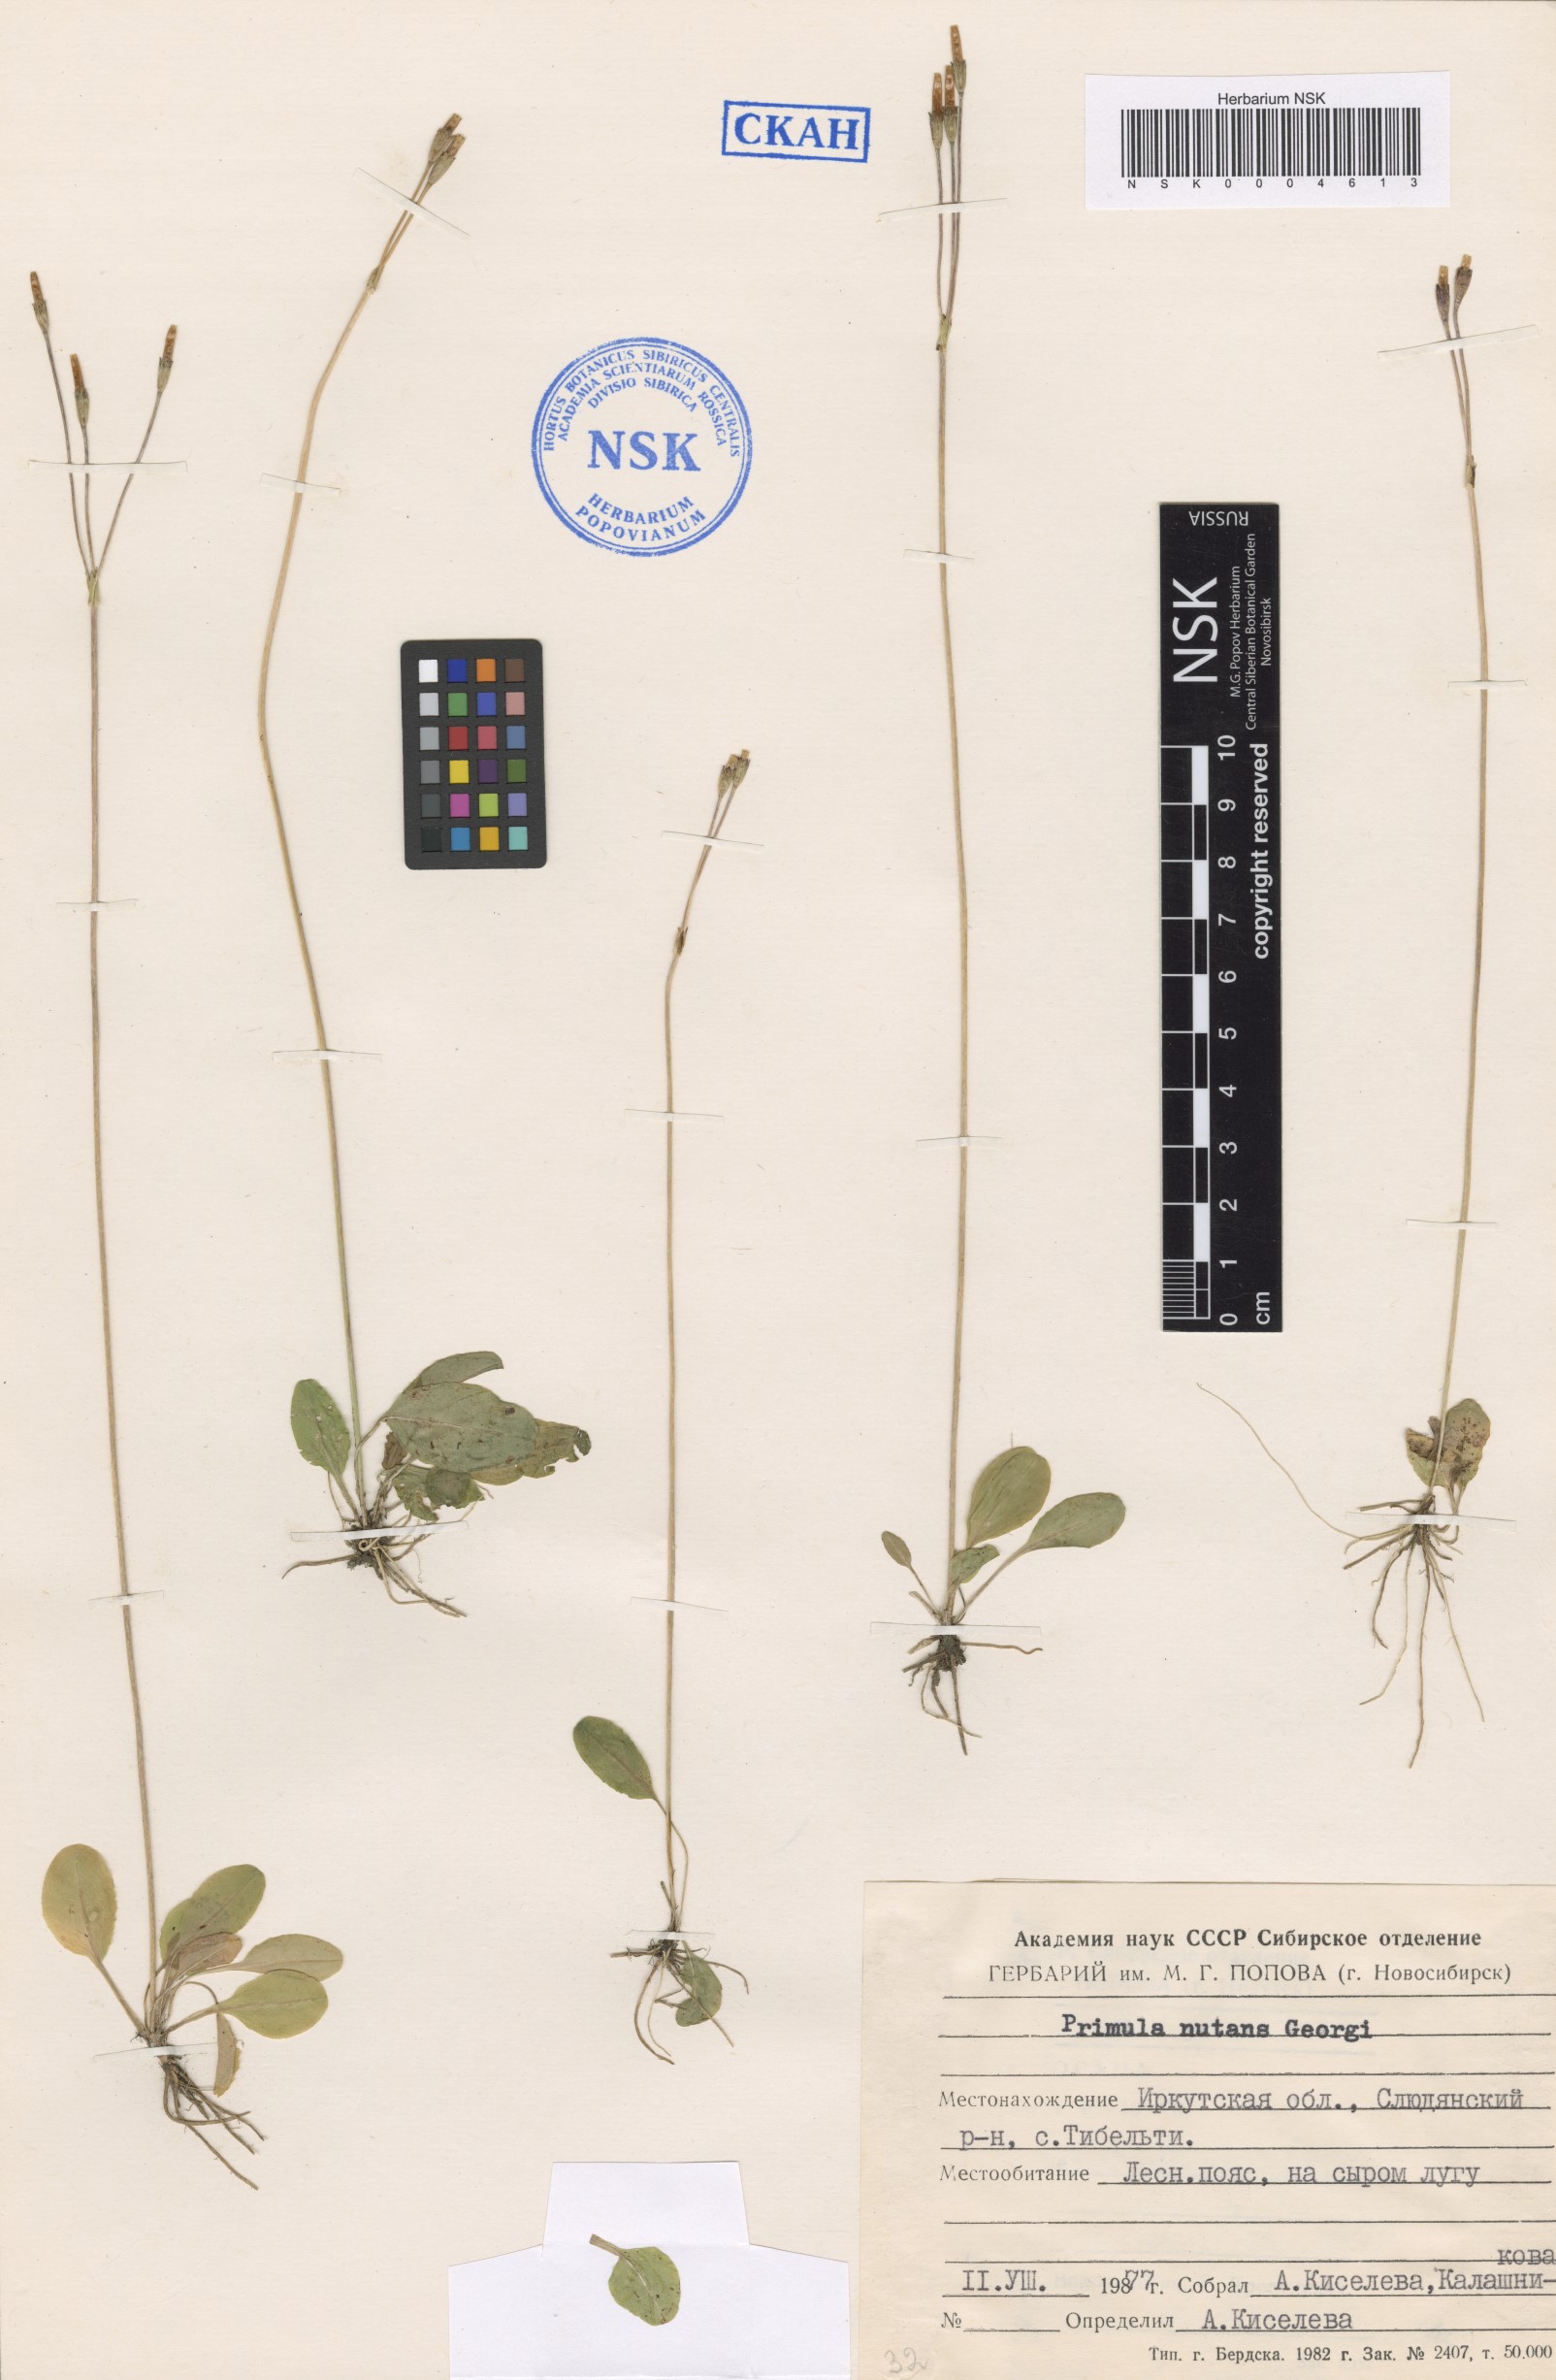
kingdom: Plantae
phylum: Tracheophyta
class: Magnoliopsida
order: Ericales
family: Primulaceae
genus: Primula
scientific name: Primula nutans
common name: Siberian primrose
